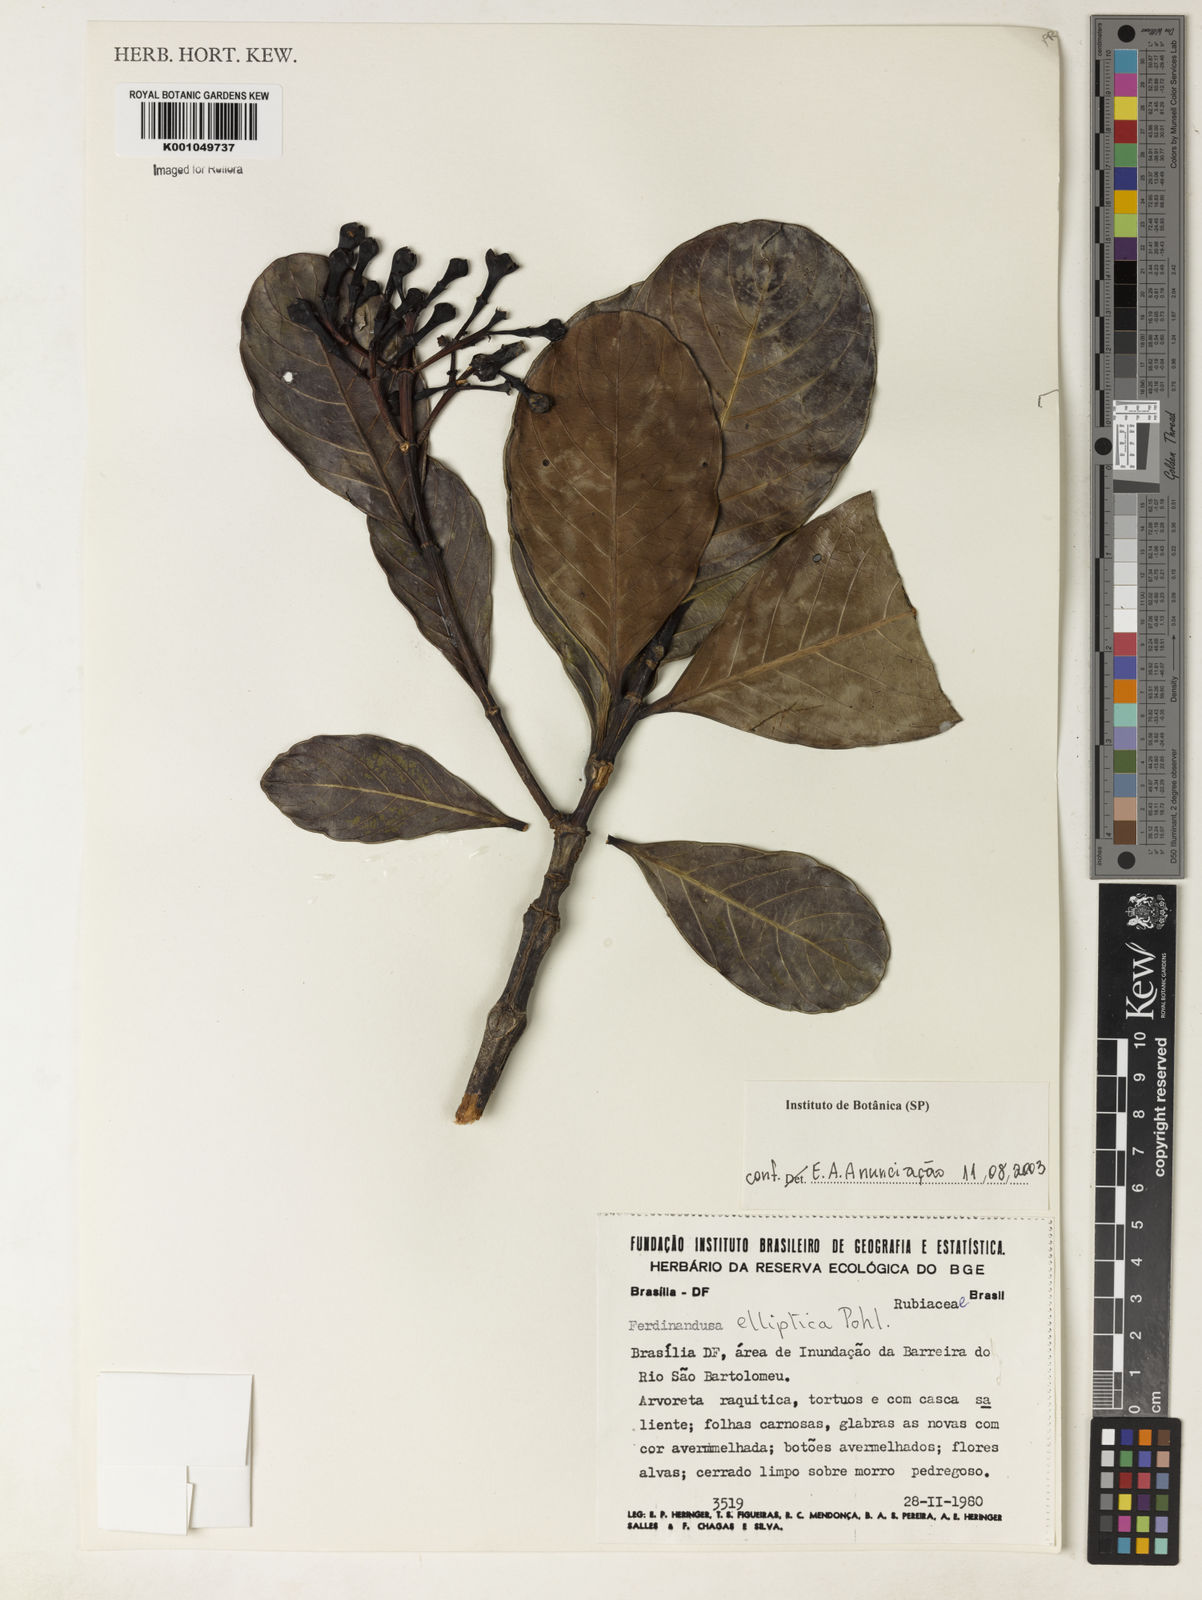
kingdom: Plantae
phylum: Tracheophyta
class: Magnoliopsida
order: Gentianales
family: Rubiaceae
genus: Ferdinandusa
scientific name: Ferdinandusa elliptica
